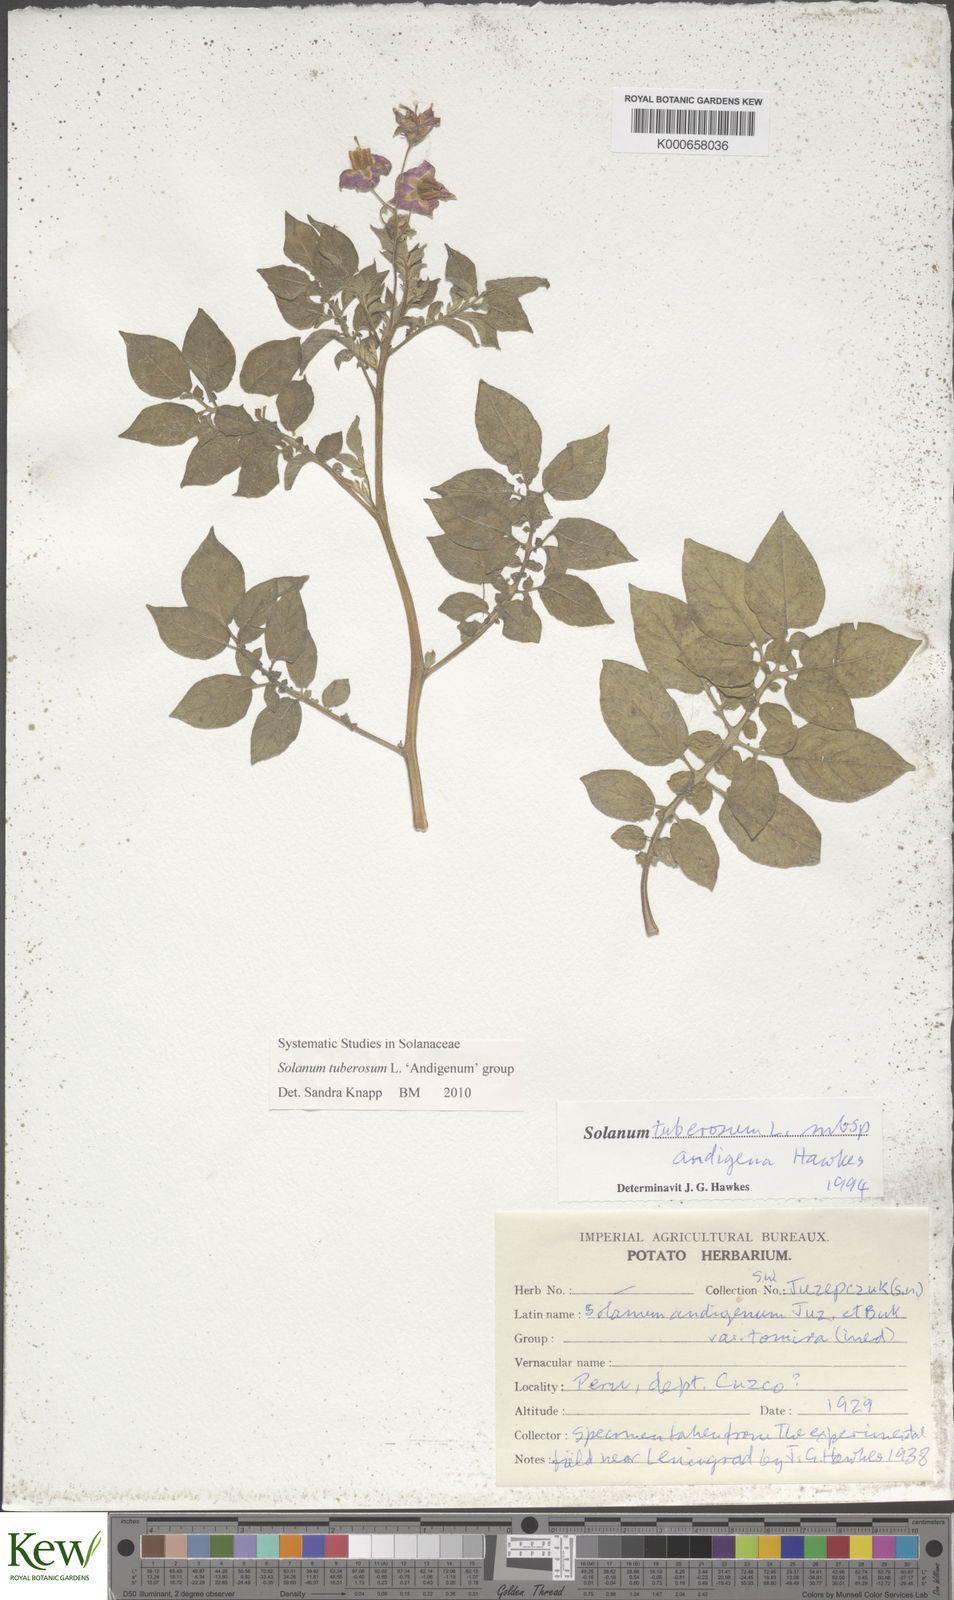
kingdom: Plantae
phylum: Tracheophyta
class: Magnoliopsida
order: Solanales
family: Solanaceae
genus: Solanum
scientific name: Solanum tuberosum
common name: Potato
